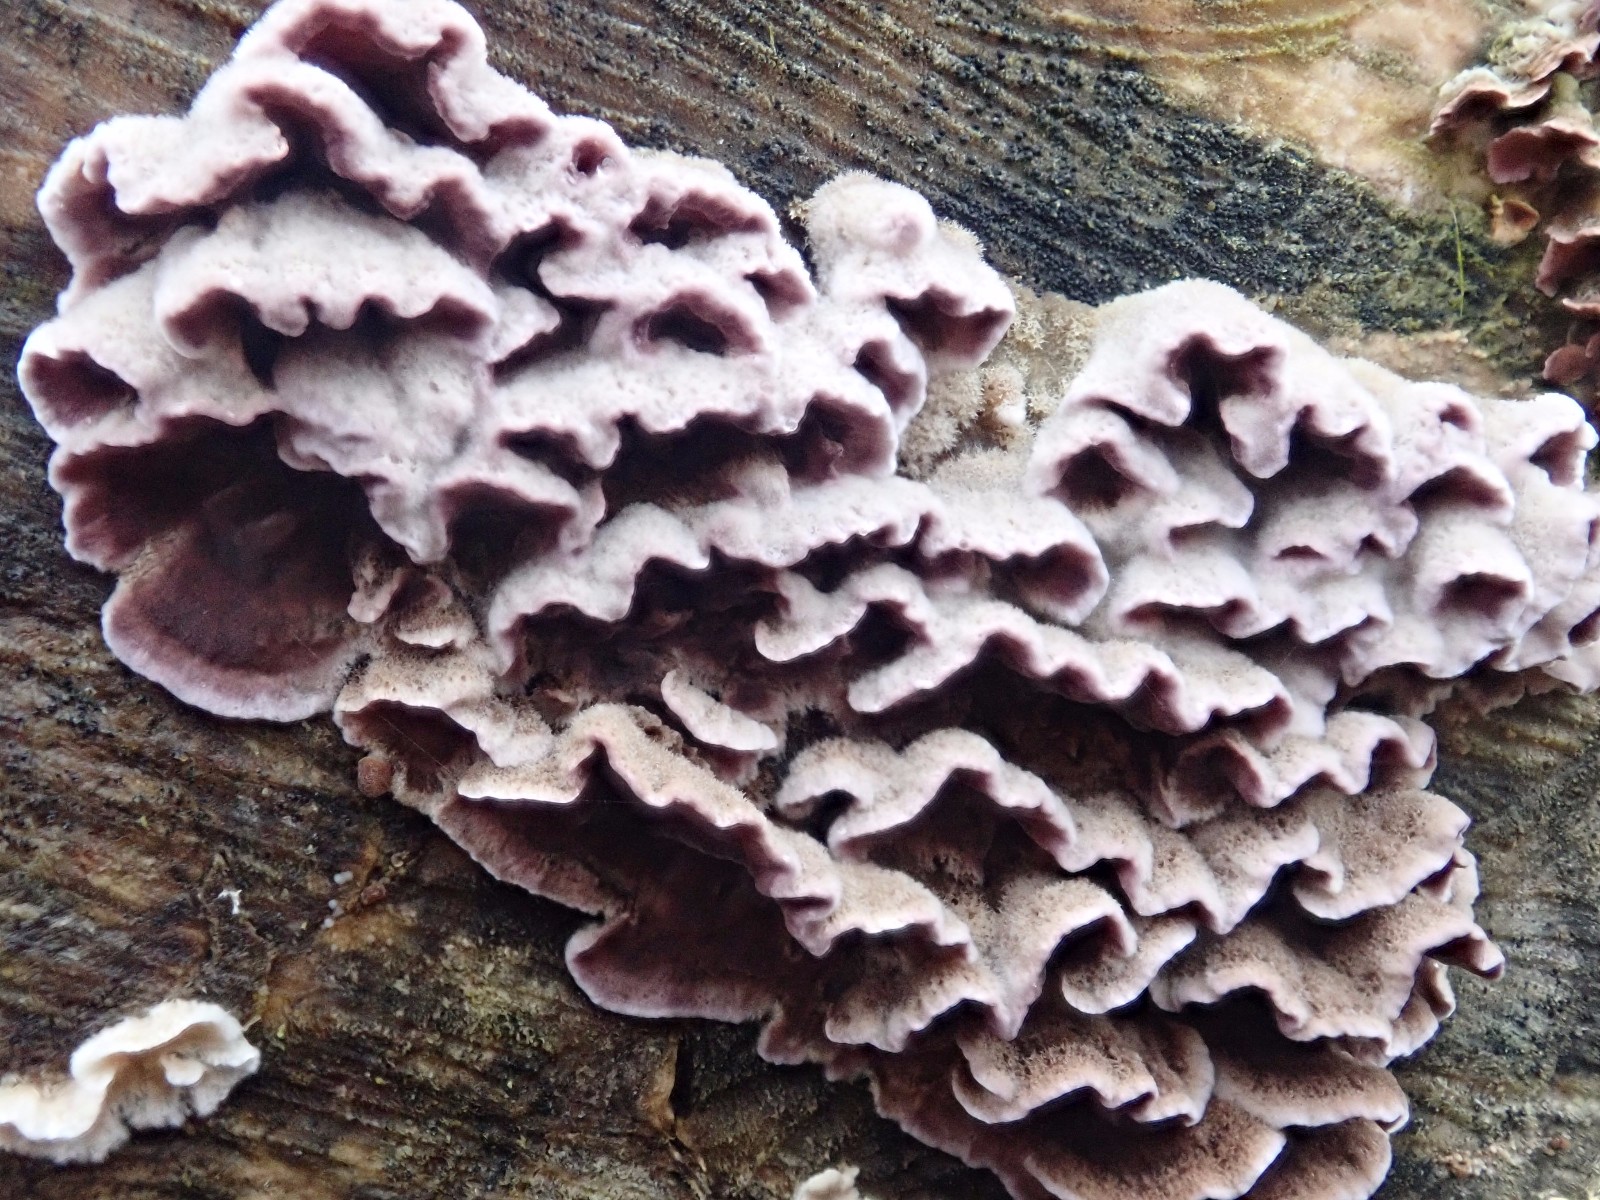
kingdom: Fungi
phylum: Basidiomycota
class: Agaricomycetes
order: Agaricales
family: Cyphellaceae
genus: Chondrostereum
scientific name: Chondrostereum purpureum
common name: purpurlædersvamp
